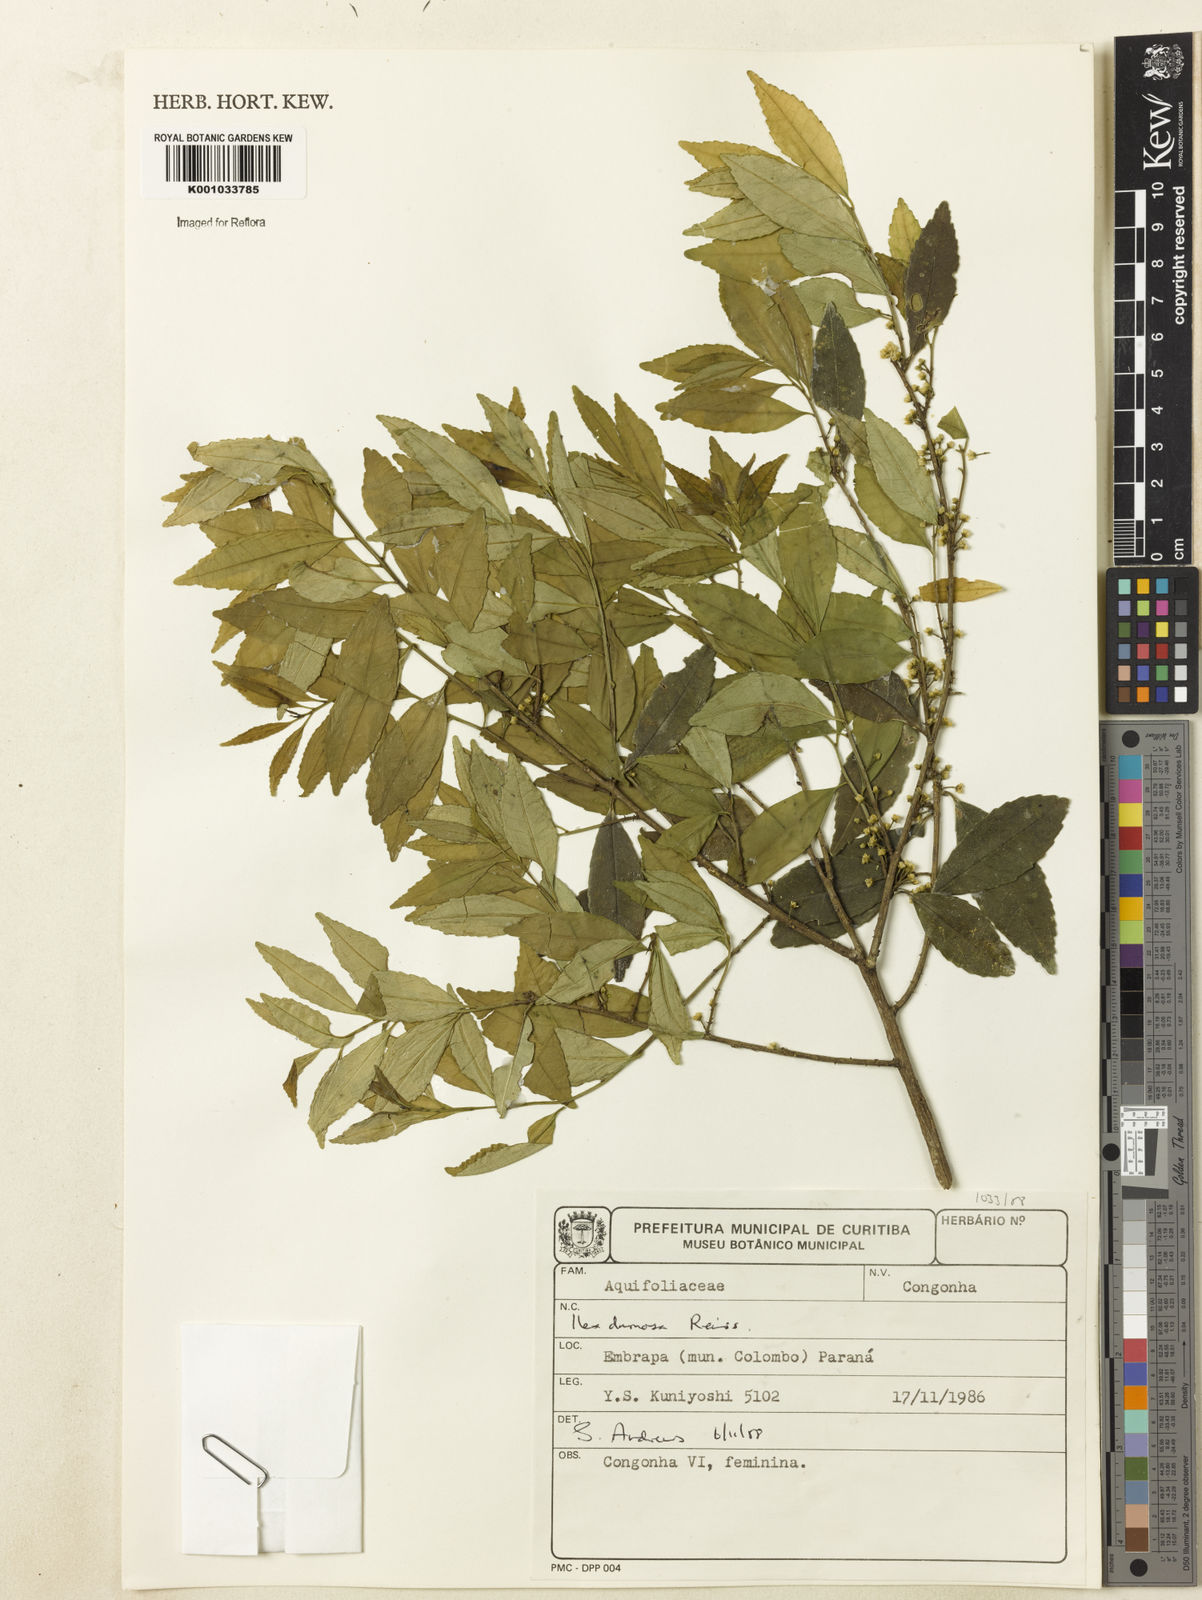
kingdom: Plantae
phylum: Tracheophyta
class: Magnoliopsida
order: Aquifoliales
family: Aquifoliaceae
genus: Ilex
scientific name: Ilex dumosa
